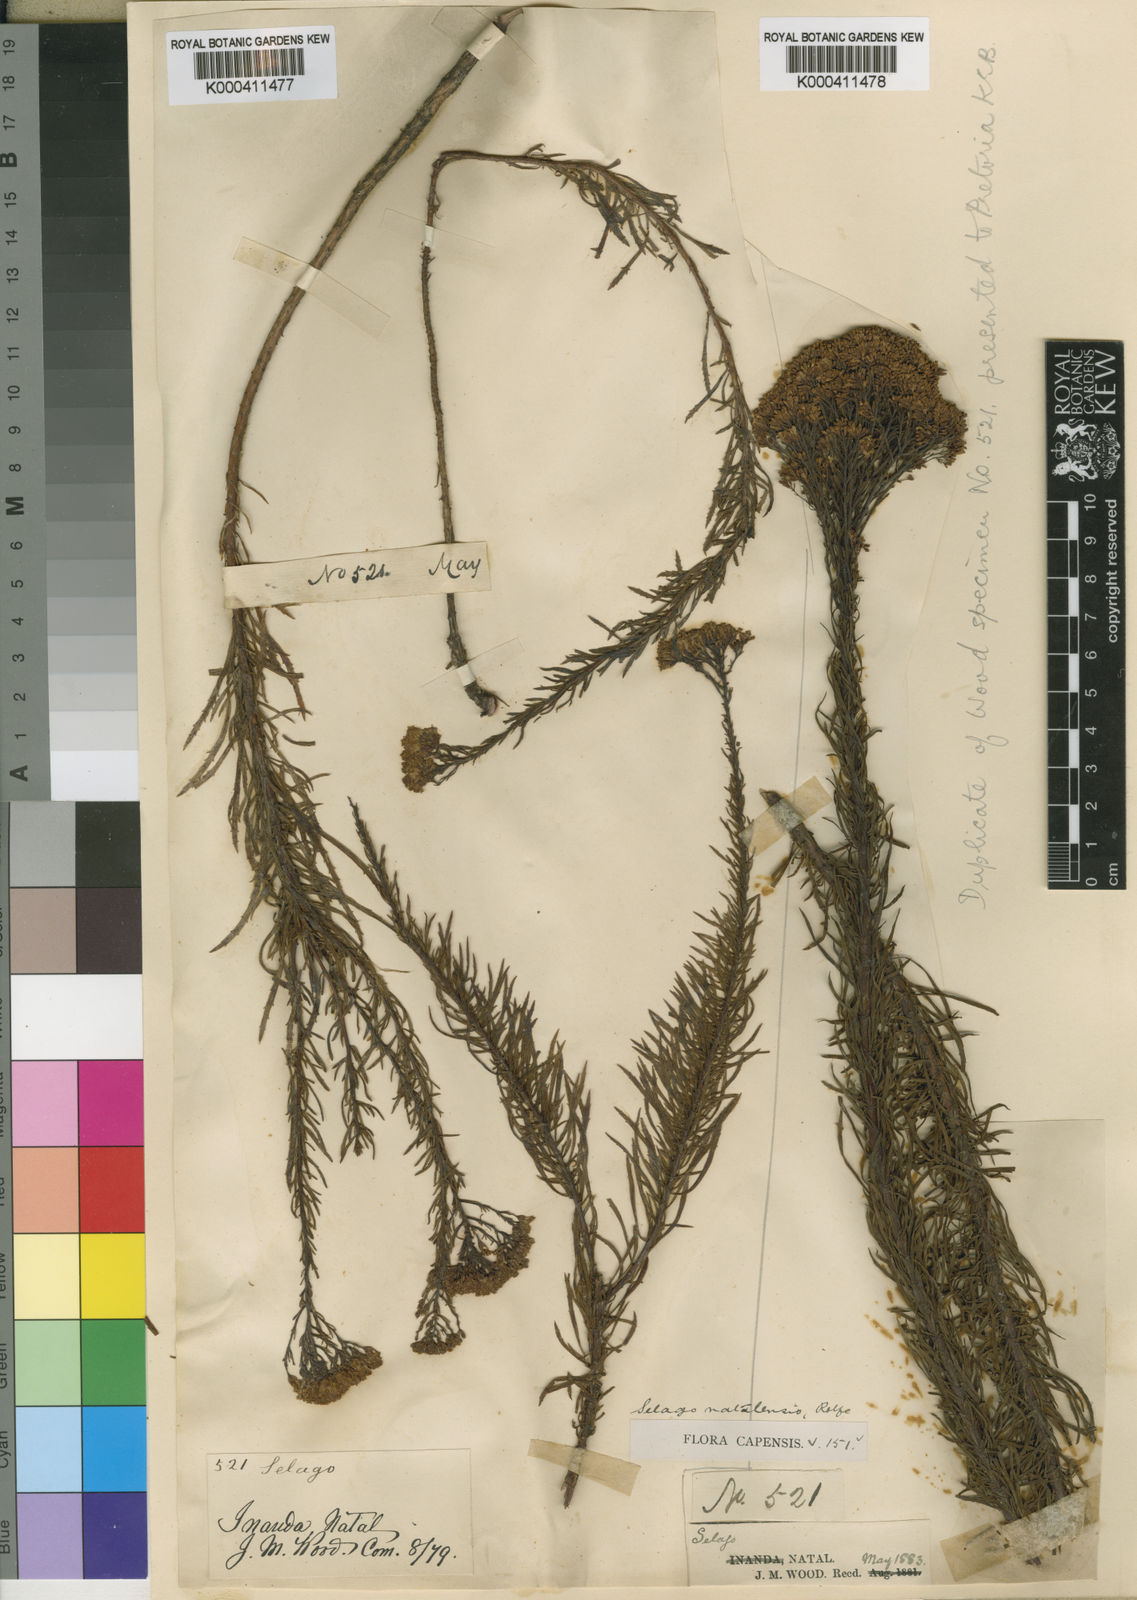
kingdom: Plantae
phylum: Tracheophyta
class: Magnoliopsida
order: Lamiales
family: Scrophulariaceae
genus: Tetraselago
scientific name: Tetraselago natalensis
